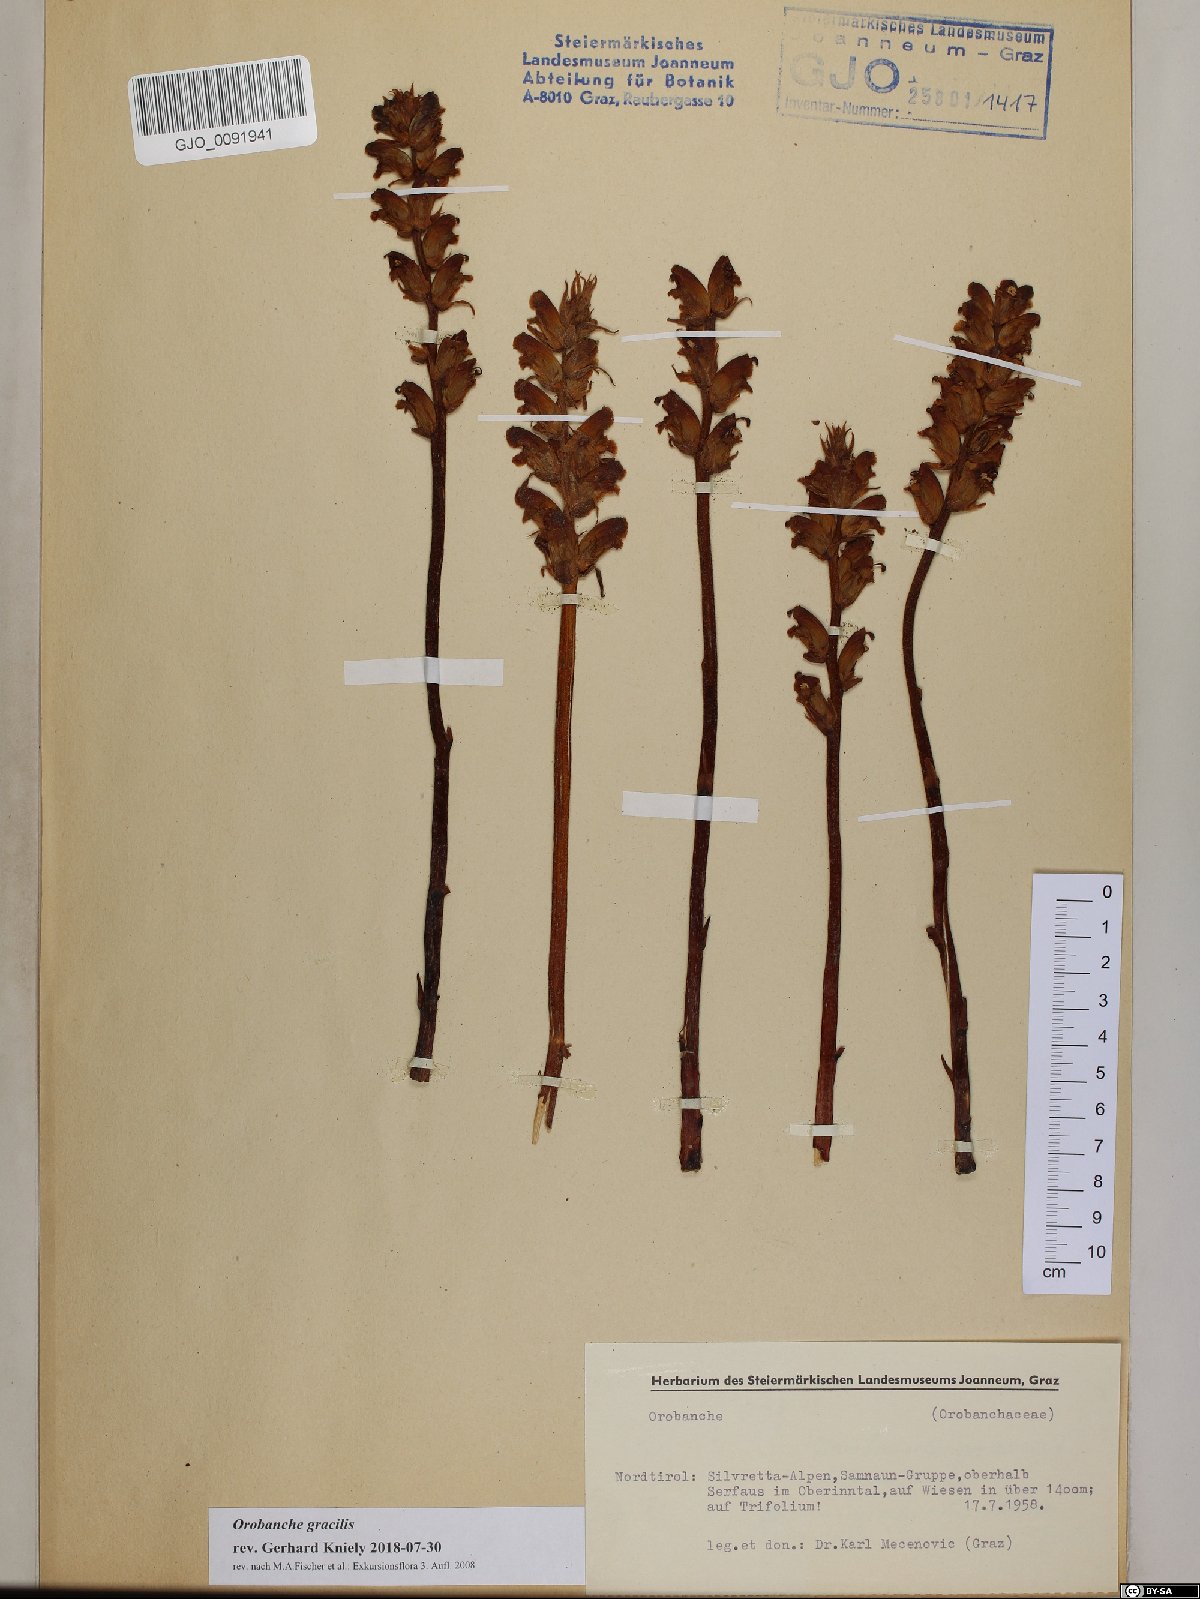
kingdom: Plantae
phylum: Tracheophyta
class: Magnoliopsida
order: Lamiales
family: Orobanchaceae
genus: Orobanche
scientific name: Orobanche gracilis
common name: Slender broomrape
